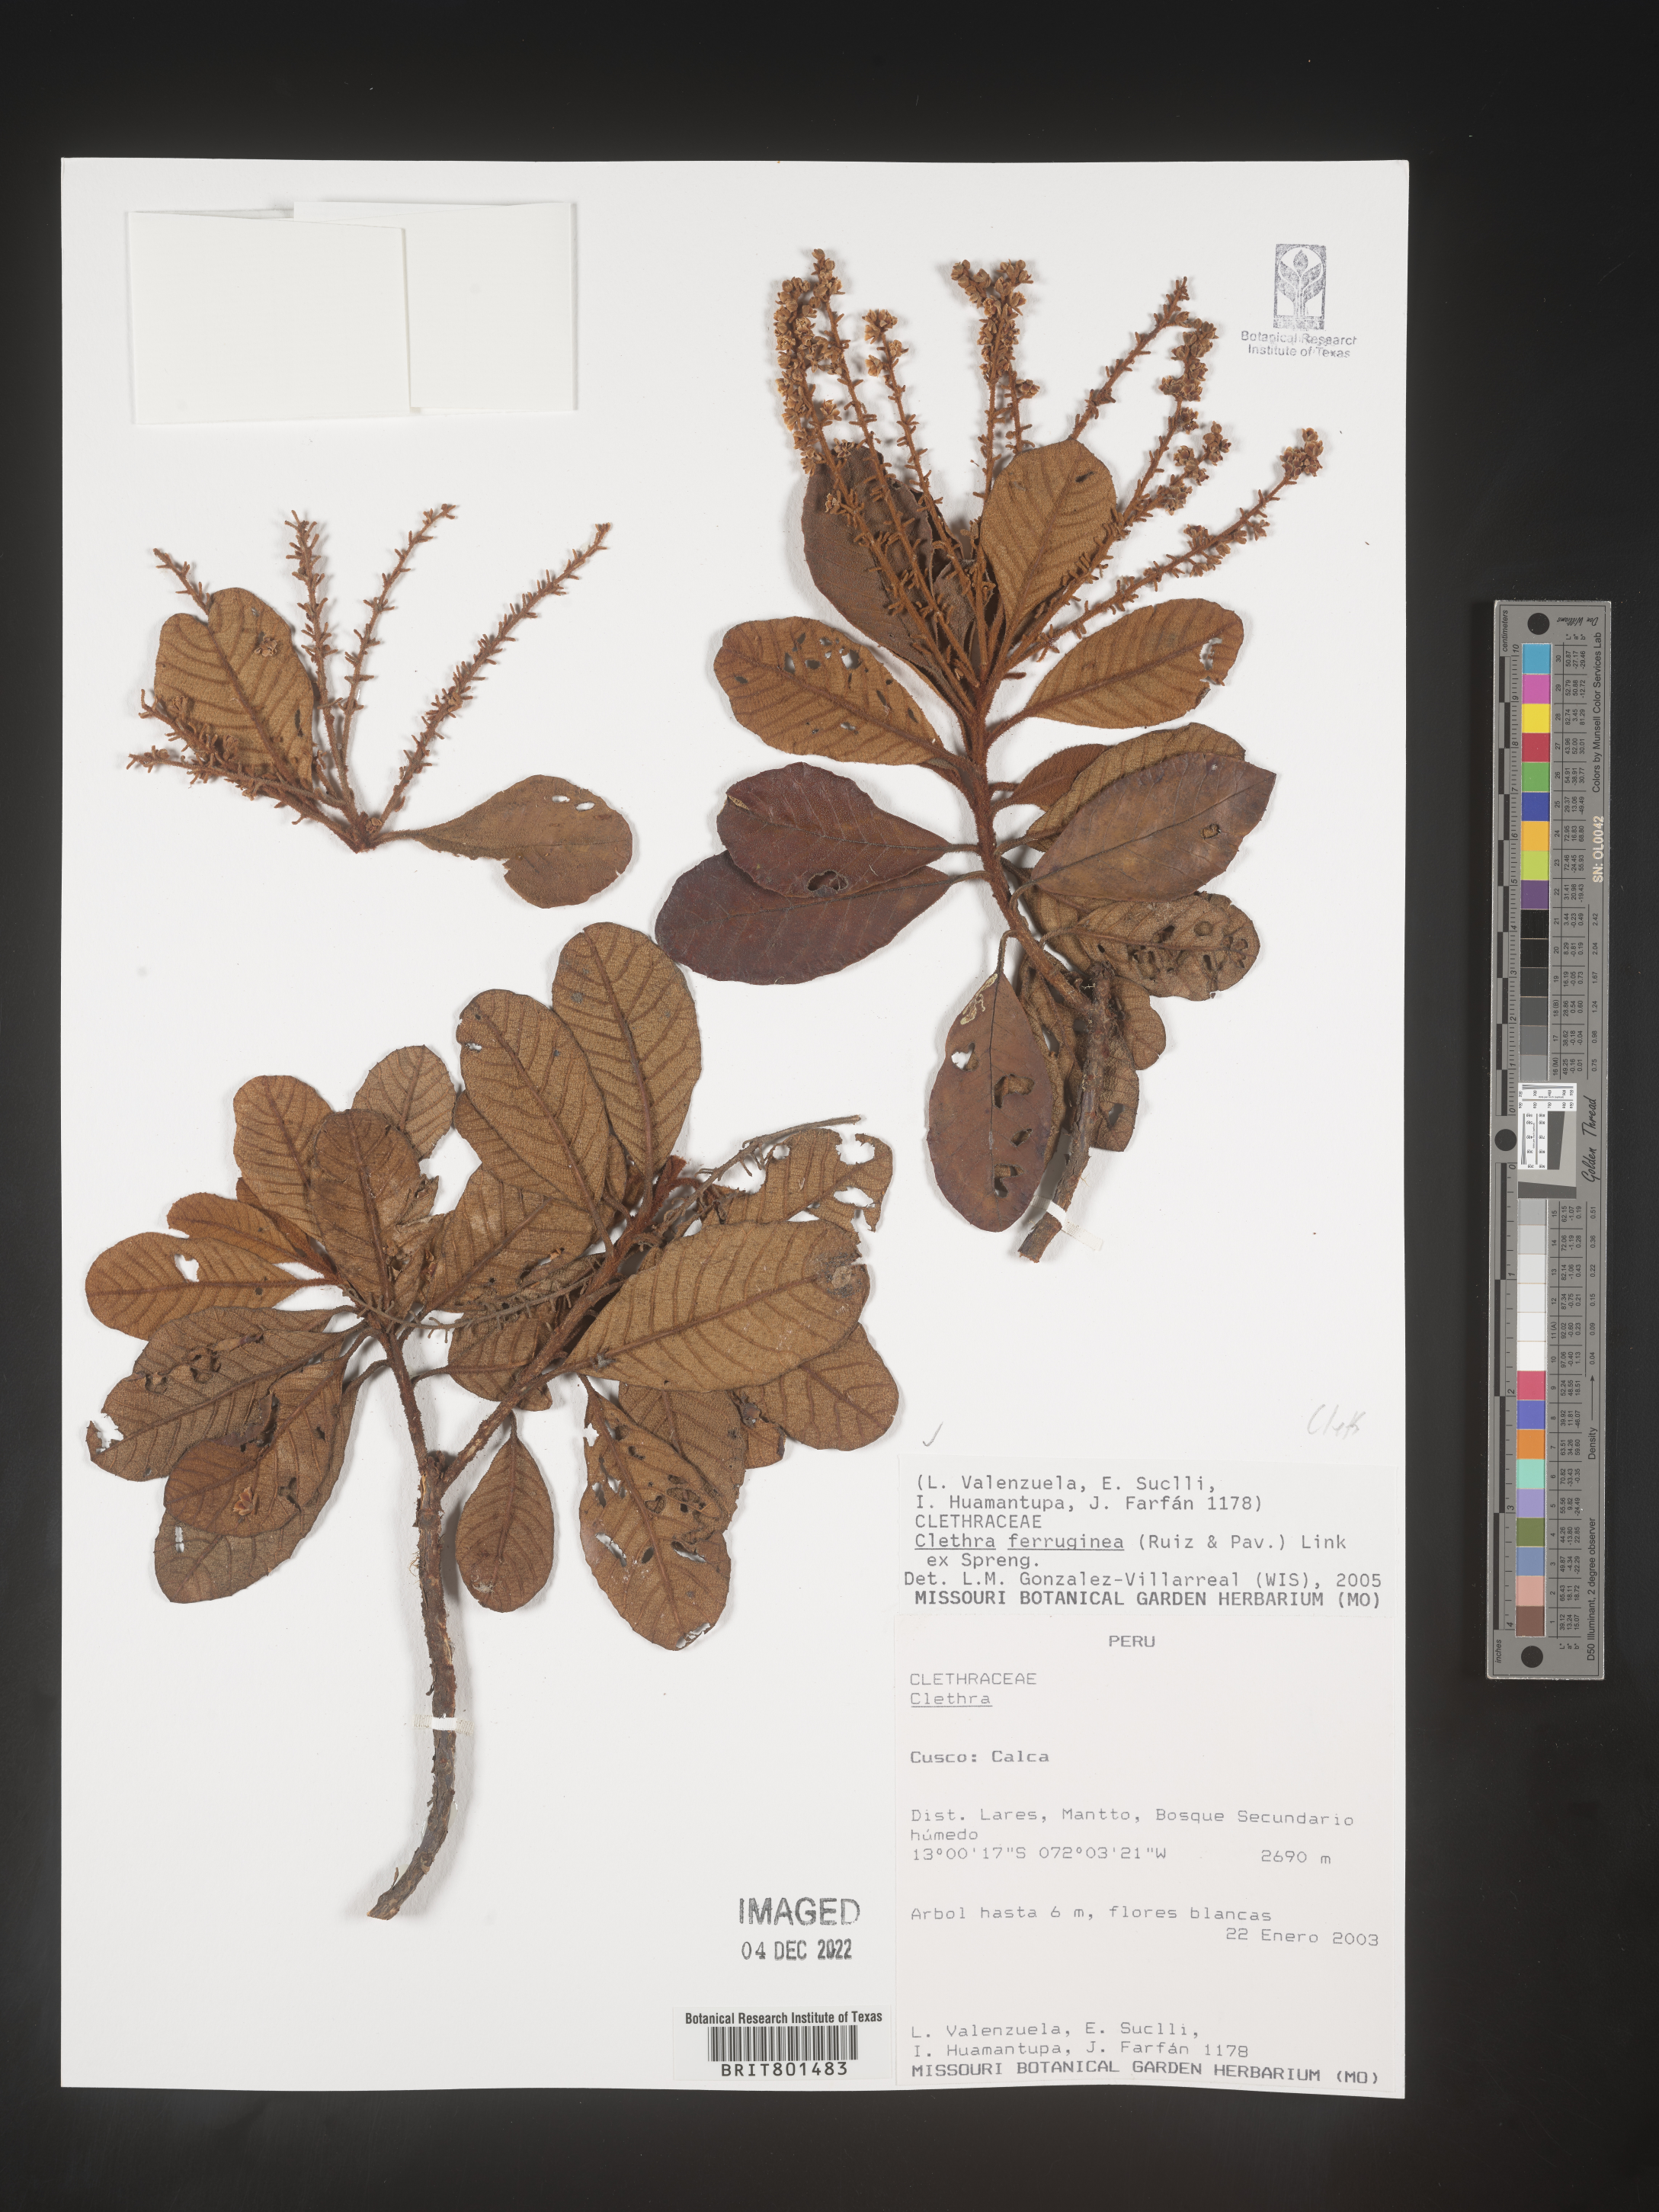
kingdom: Plantae
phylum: Tracheophyta
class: Magnoliopsida
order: Ericales
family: Clethraceae
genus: Clethra
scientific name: Clethra
